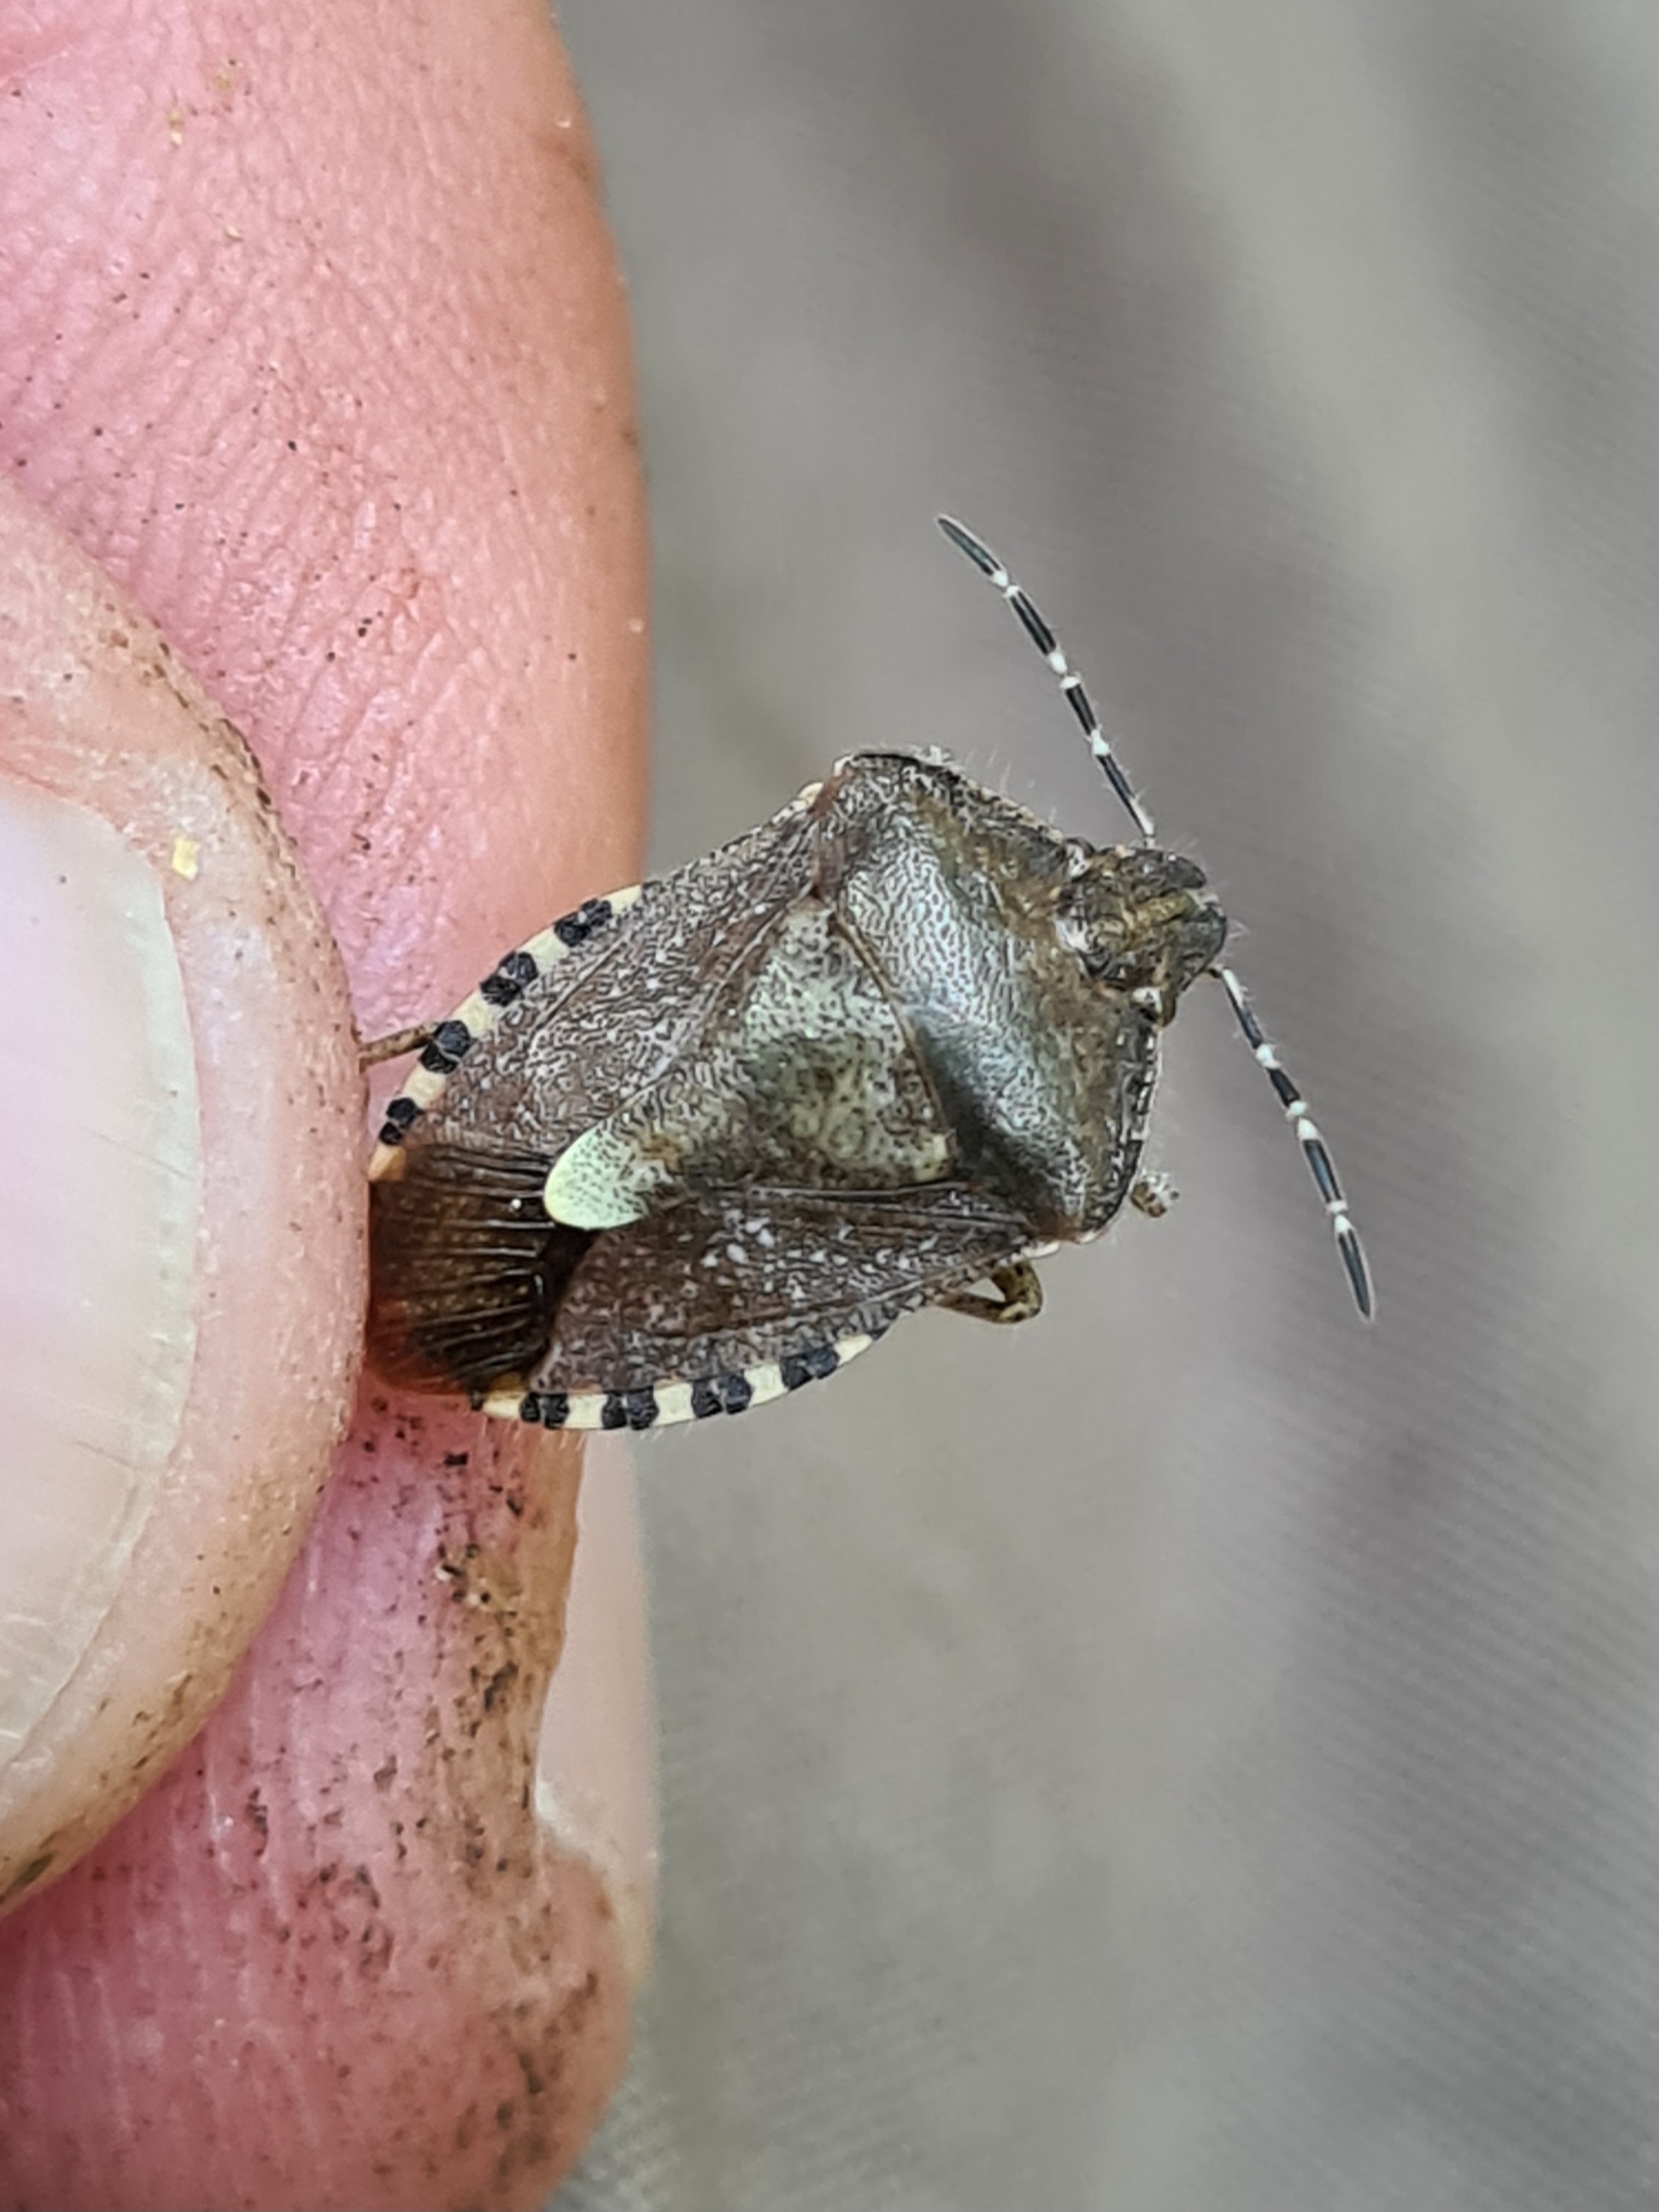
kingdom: Animalia
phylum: Arthropoda
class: Insecta
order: Hemiptera
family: Pentatomidae
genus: Dolycoris
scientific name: Dolycoris baccarum
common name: Almindelig bærtæge
